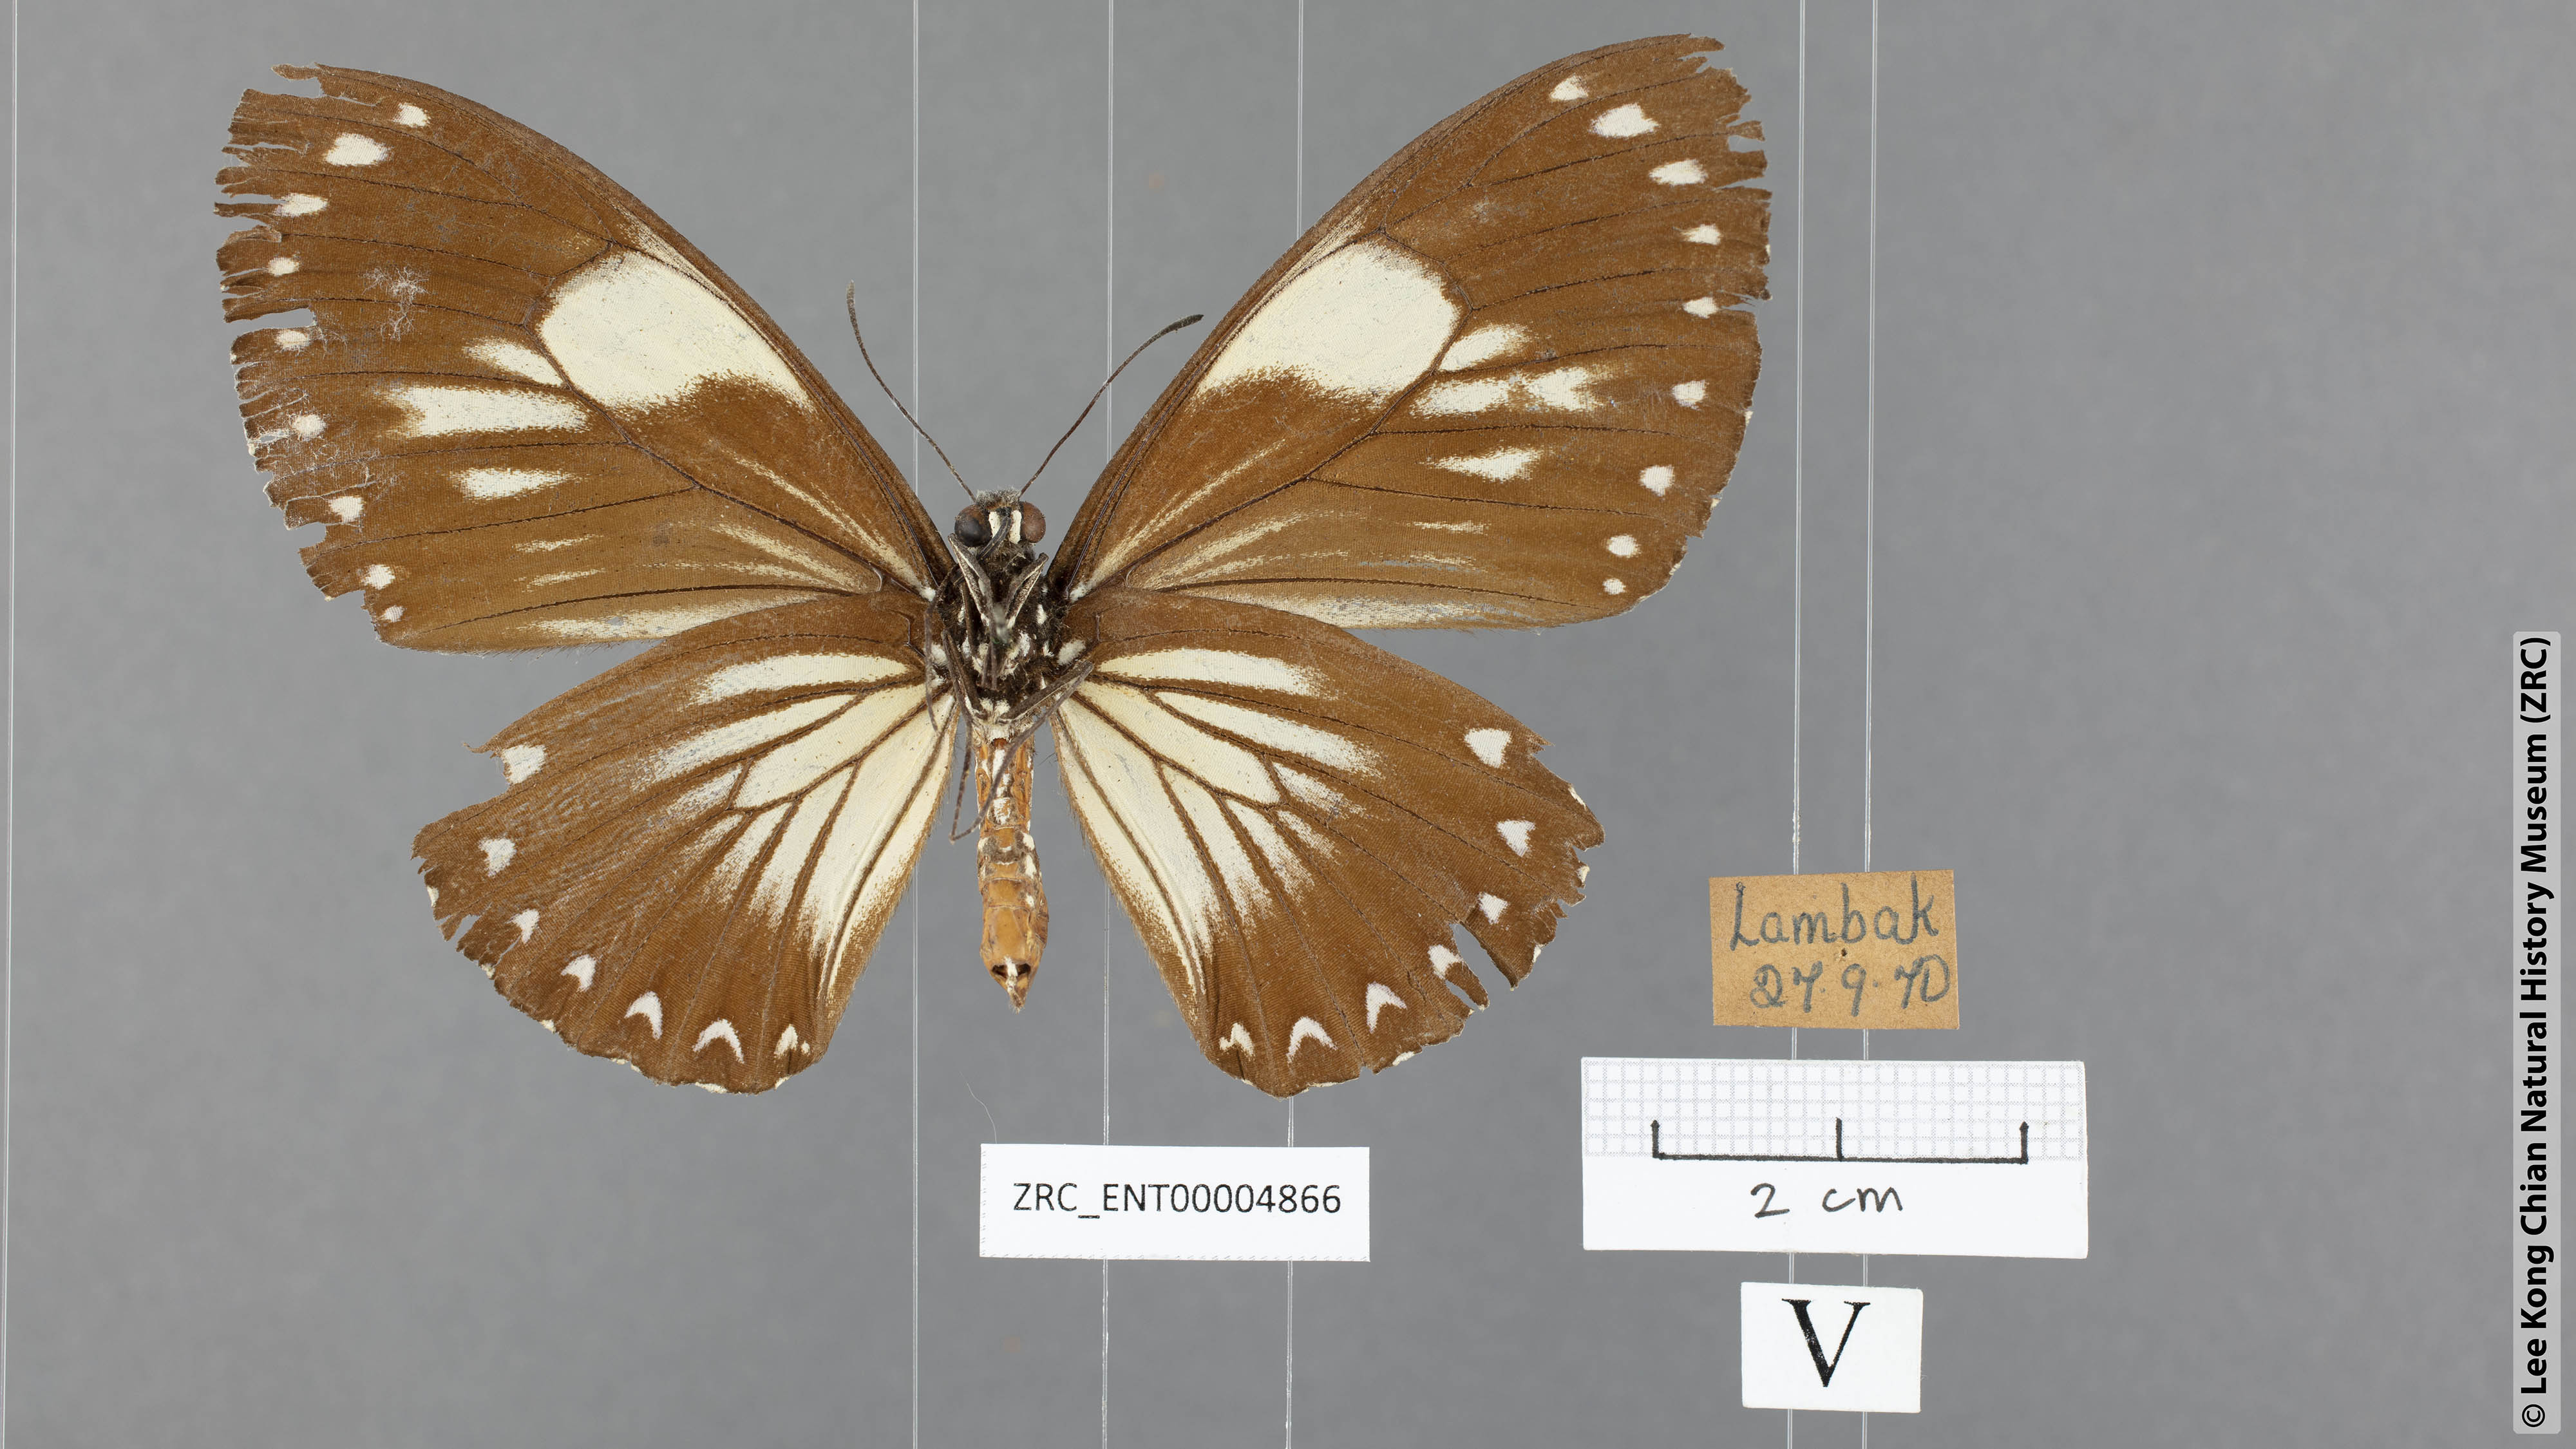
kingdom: Animalia
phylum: Arthropoda
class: Insecta
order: Lepidoptera
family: Papilionidae
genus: Chilasa
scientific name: Chilasa paradoxa
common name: Great mime
